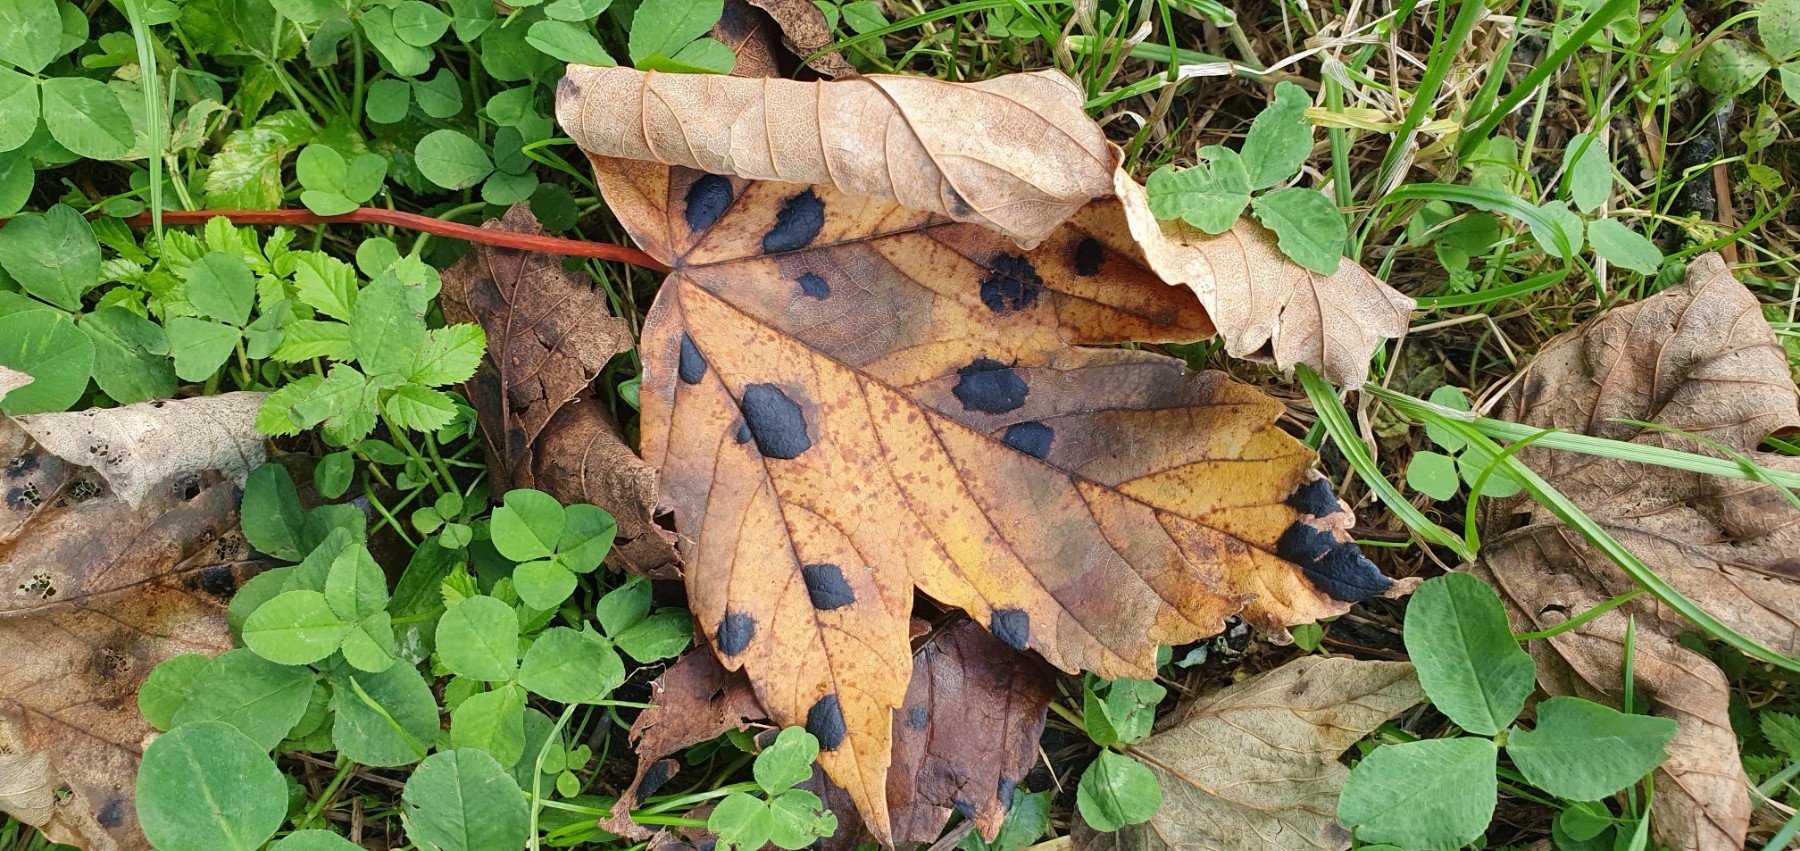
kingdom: Fungi
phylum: Ascomycota
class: Leotiomycetes
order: Rhytismatales
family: Rhytismataceae
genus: Rhytisma
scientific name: Rhytisma acerinum
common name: ahorn-rynkeplet
